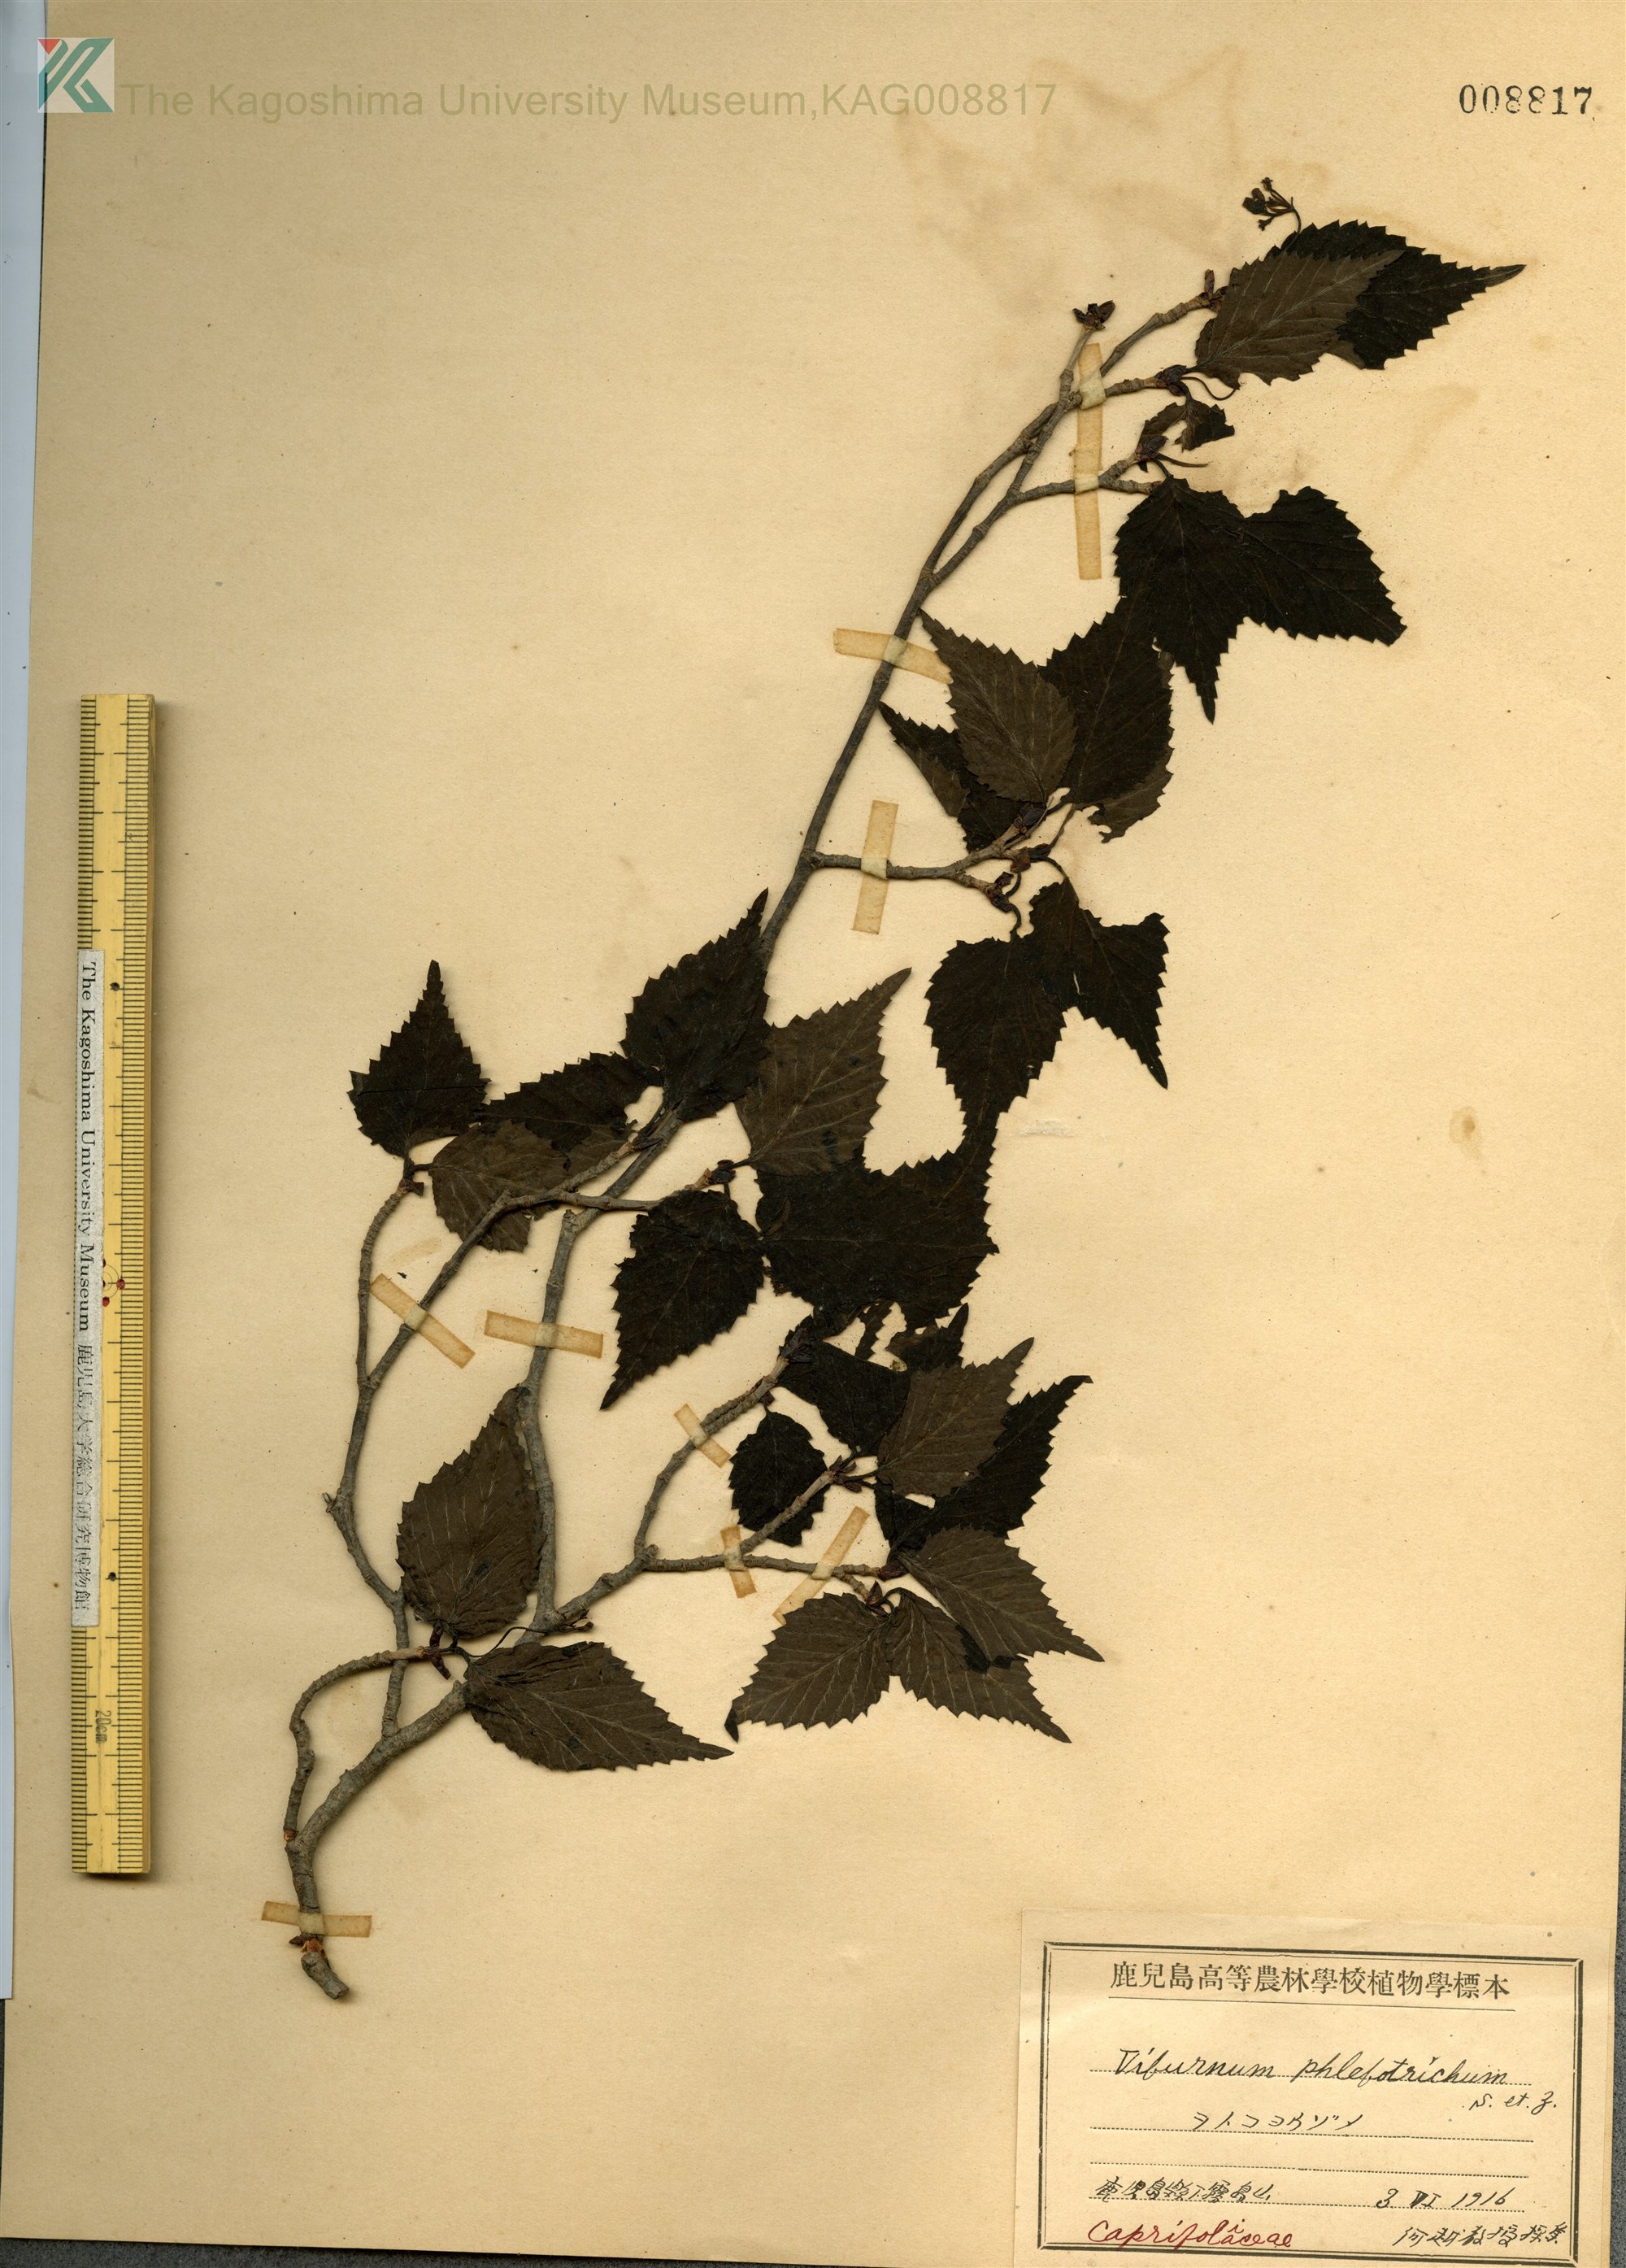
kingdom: Plantae
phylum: Tracheophyta
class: Magnoliopsida
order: Dipsacales
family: Viburnaceae
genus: Viburnum
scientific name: Viburnum phlebotrichum
